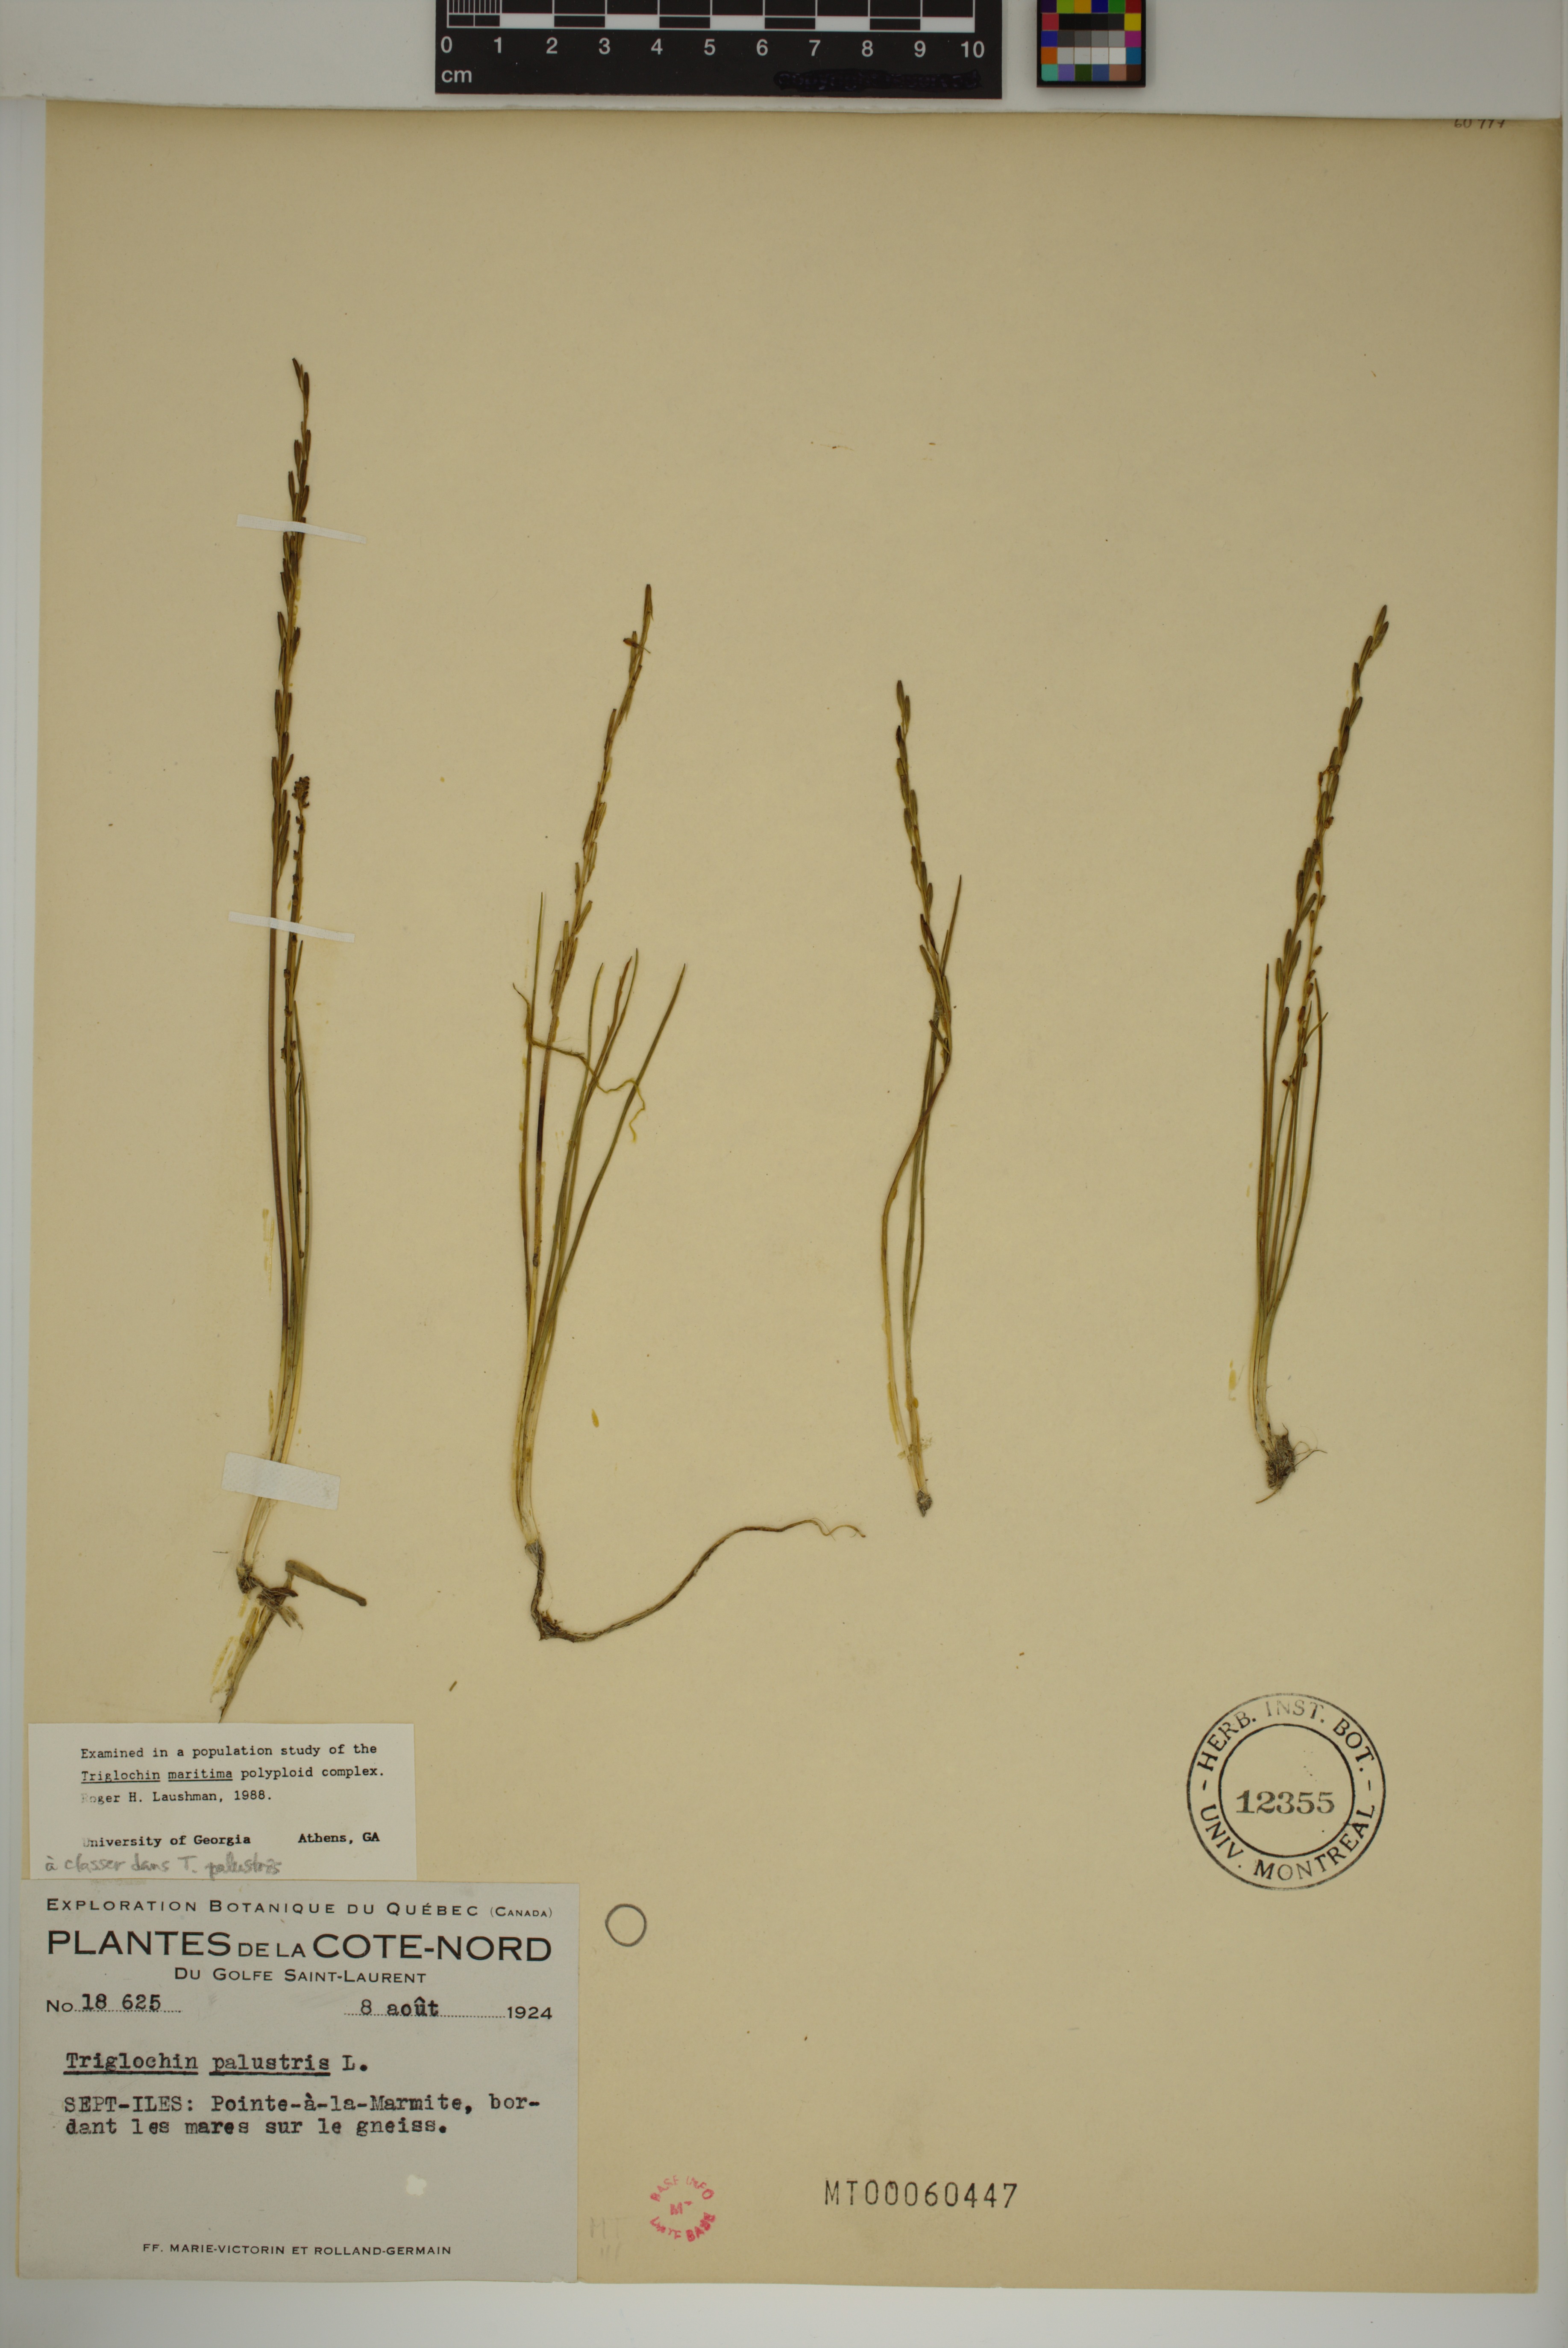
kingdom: Plantae
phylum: Tracheophyta
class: Liliopsida
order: Alismatales
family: Juncaginaceae
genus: Triglochin
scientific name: Triglochin palustris
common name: Marsh arrowgrass
